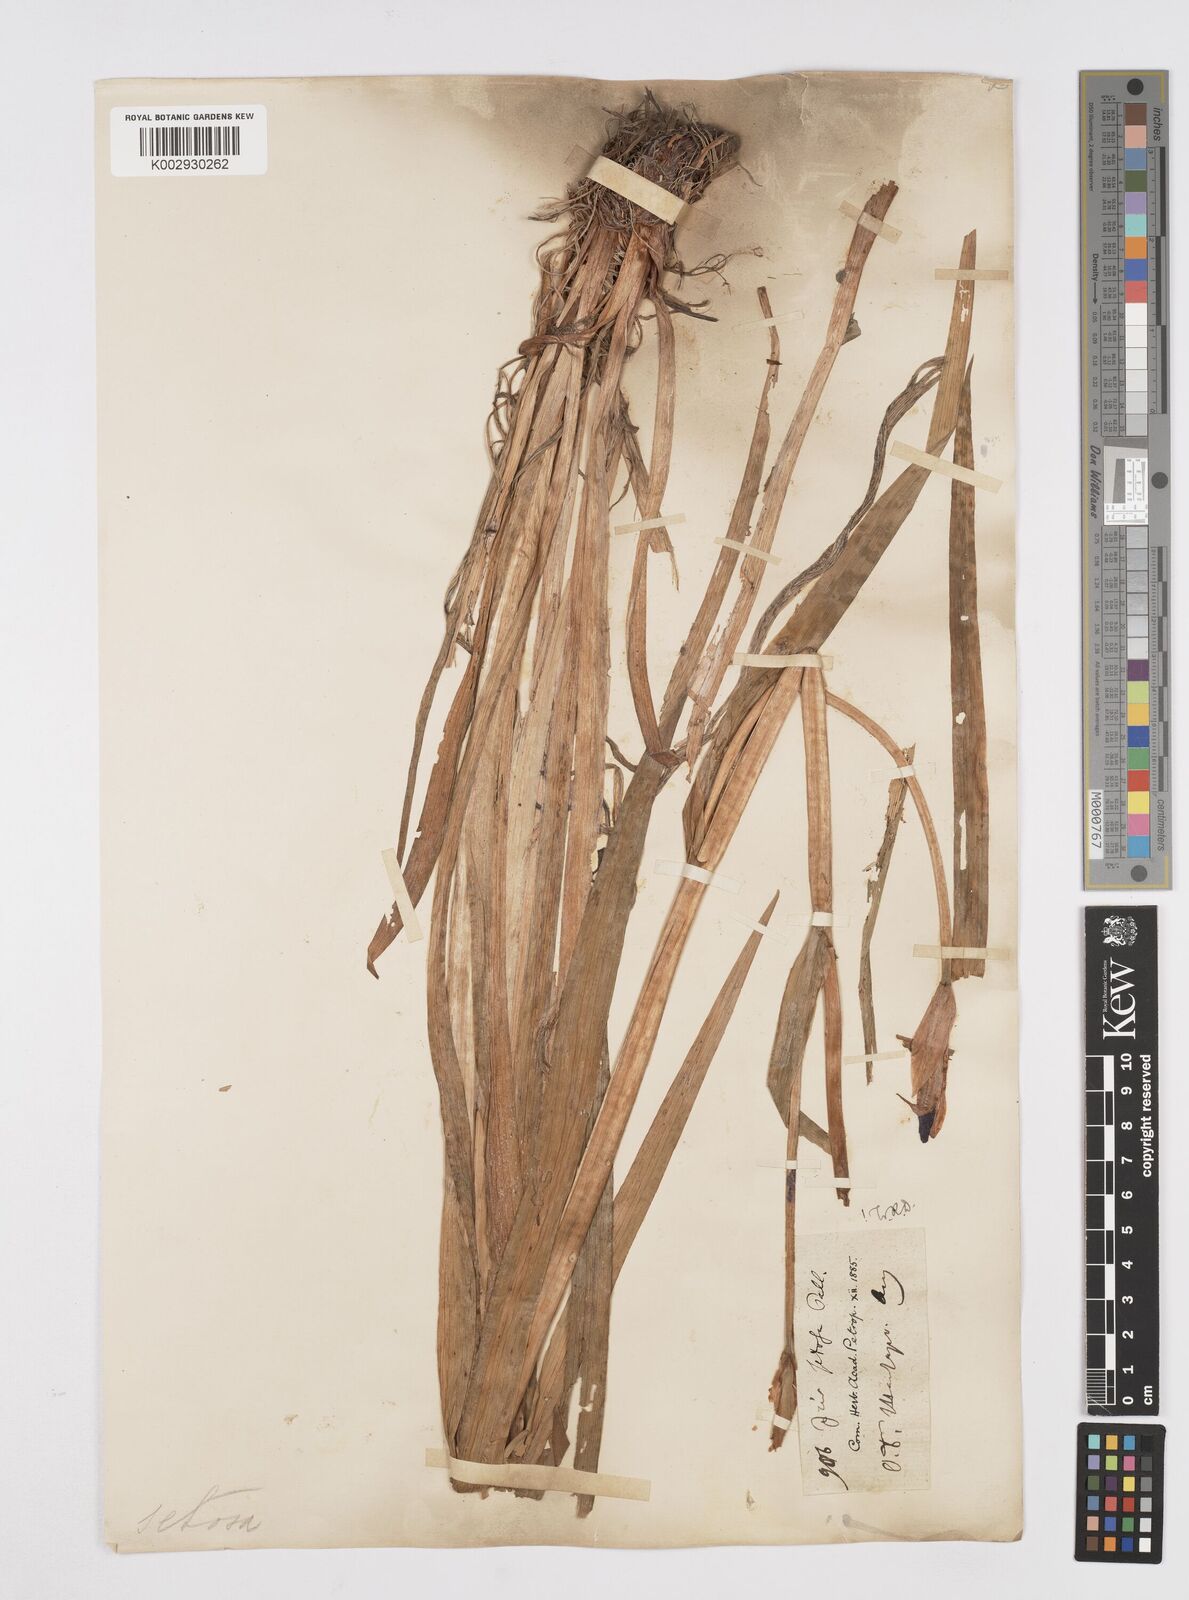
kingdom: Plantae
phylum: Tracheophyta
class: Liliopsida
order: Asparagales
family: Iridaceae
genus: Iris
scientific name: Iris setosa
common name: Arctic blue flag
